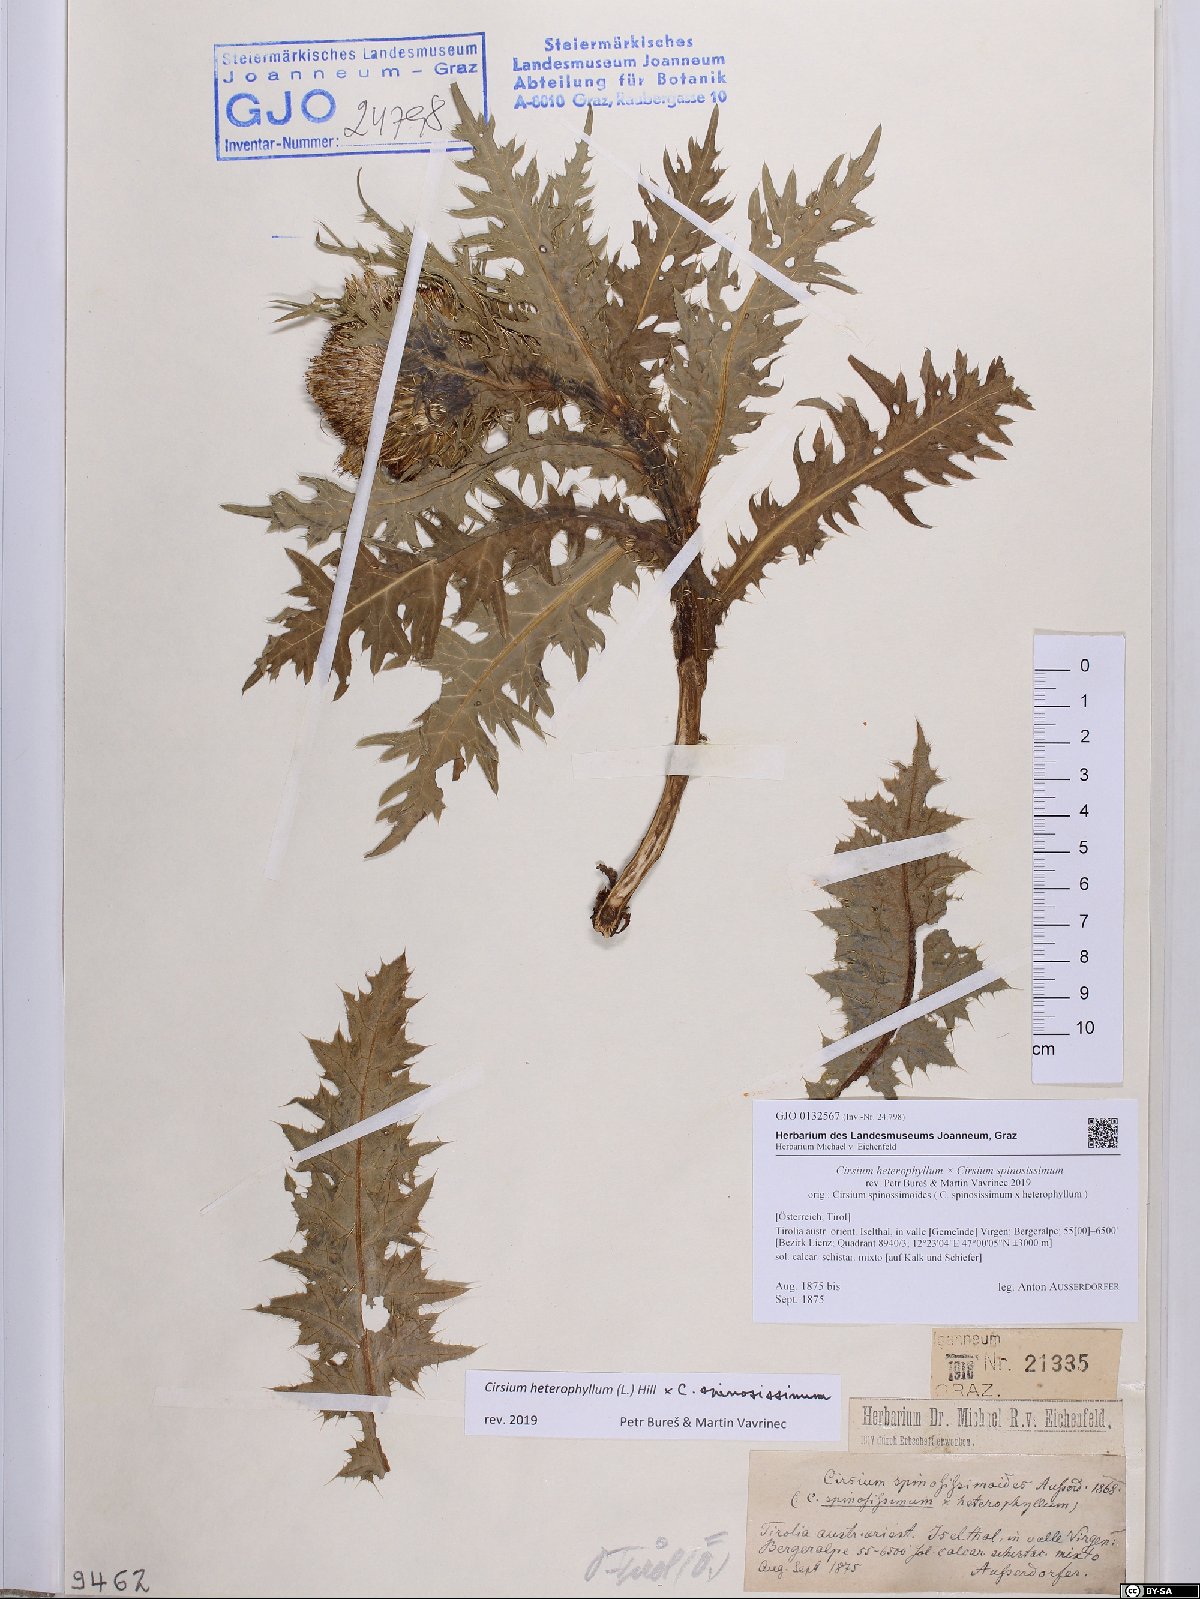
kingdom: Plantae
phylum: Tracheophyta
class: Magnoliopsida
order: Asterales
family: Asteraceae
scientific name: Asteraceae
